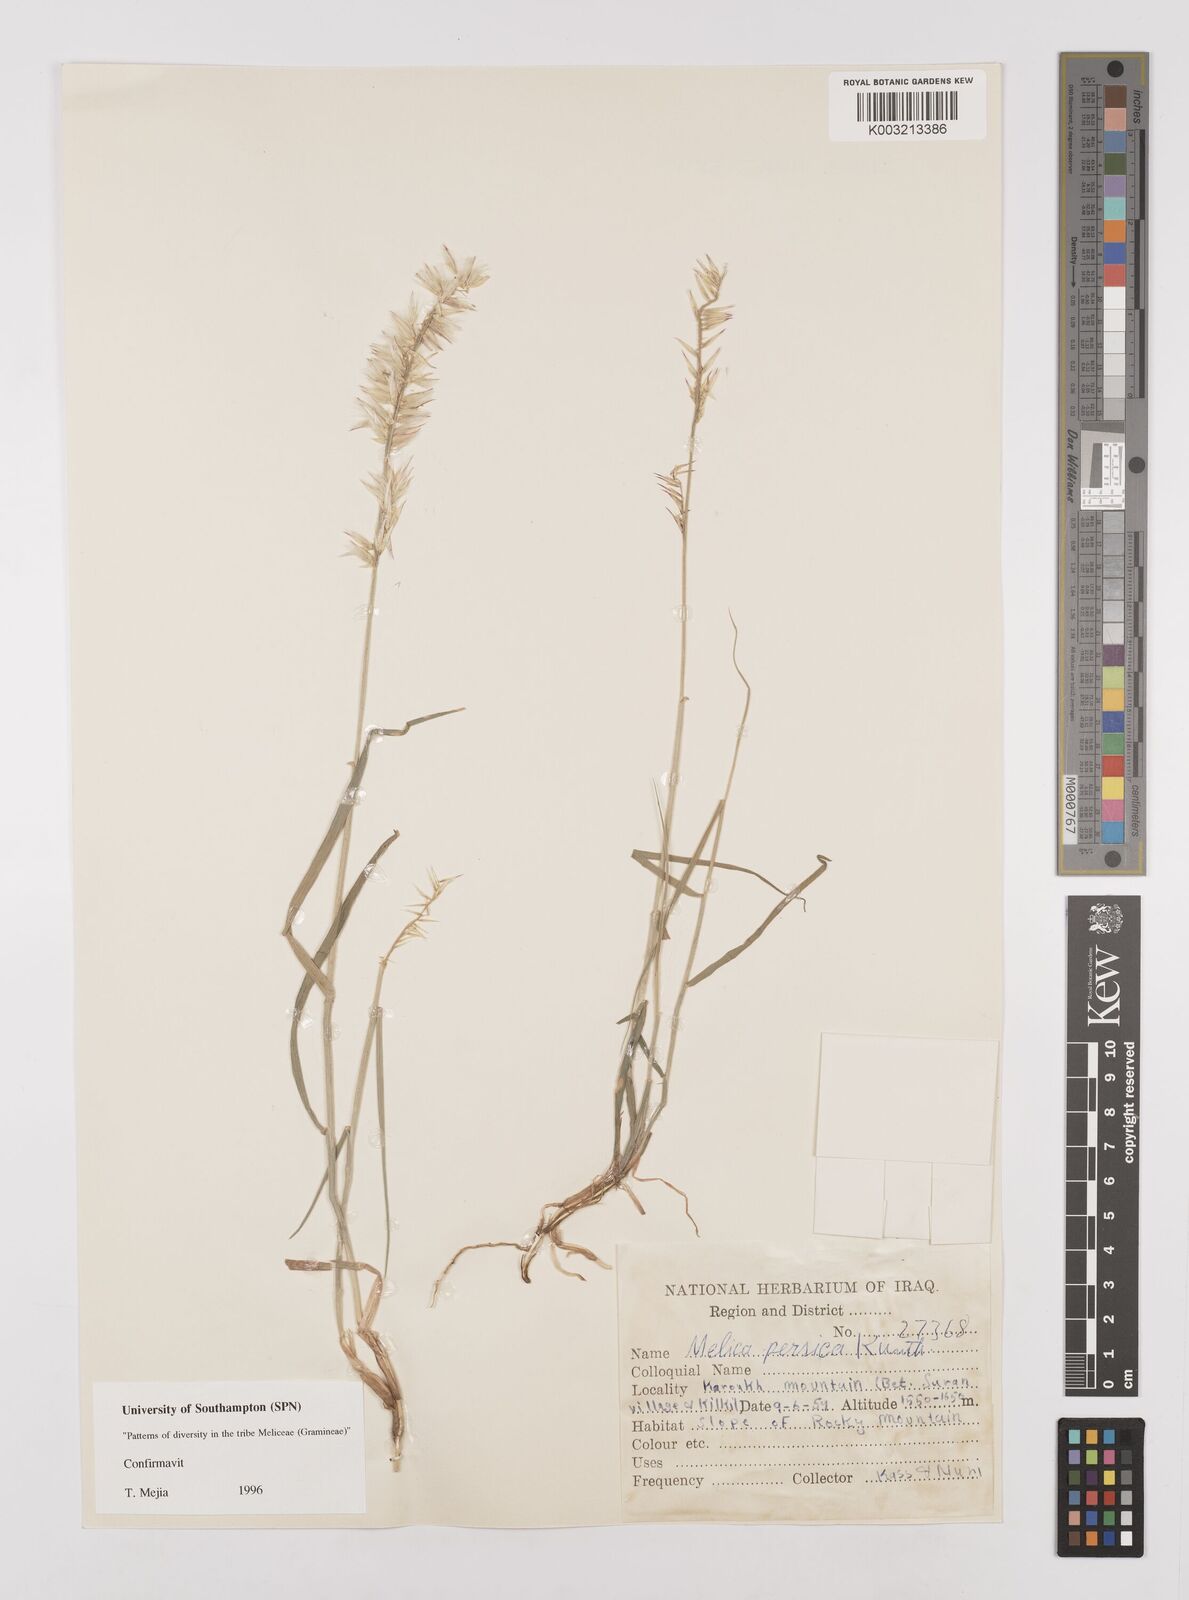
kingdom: Plantae
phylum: Tracheophyta
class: Liliopsida
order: Poales
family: Poaceae
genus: Melica
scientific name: Melica persica
